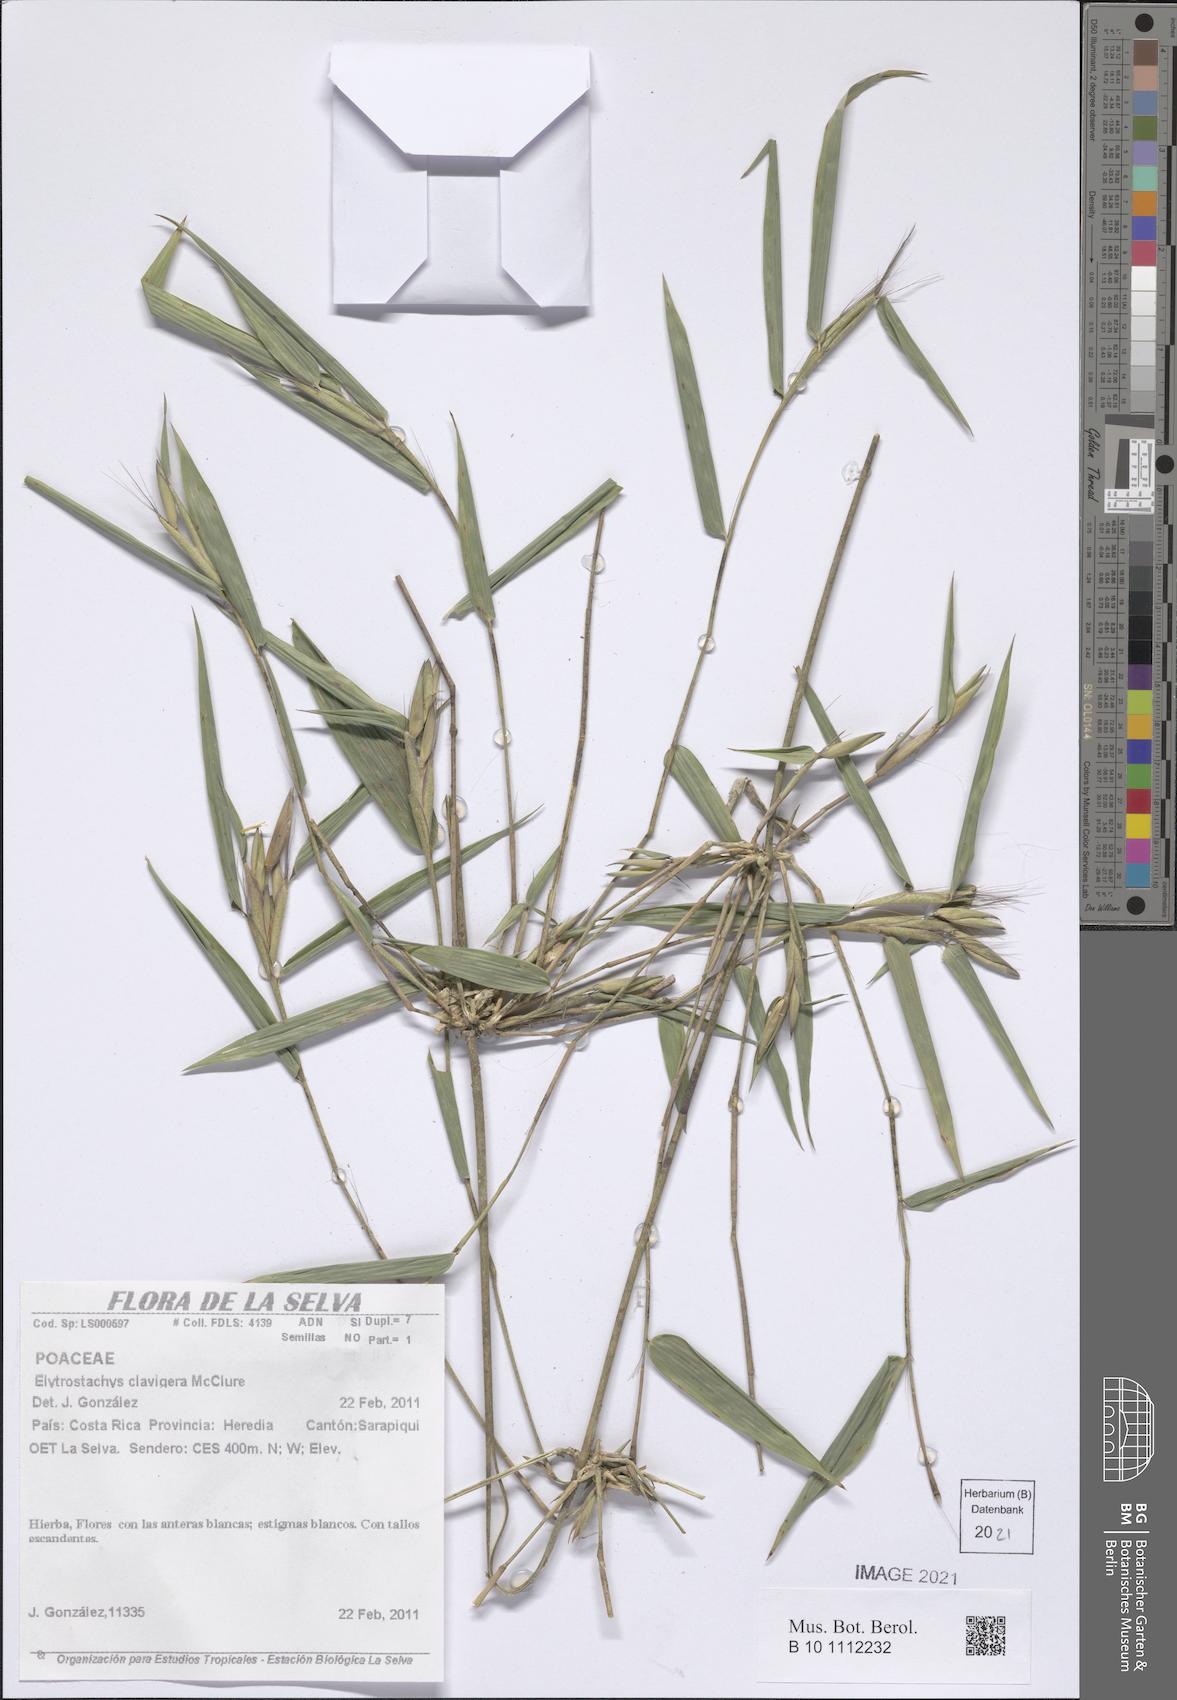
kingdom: Plantae
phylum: Tracheophyta
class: Liliopsida
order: Poales
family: Poaceae
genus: Elytrostachys
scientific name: Elytrostachys clavigera
